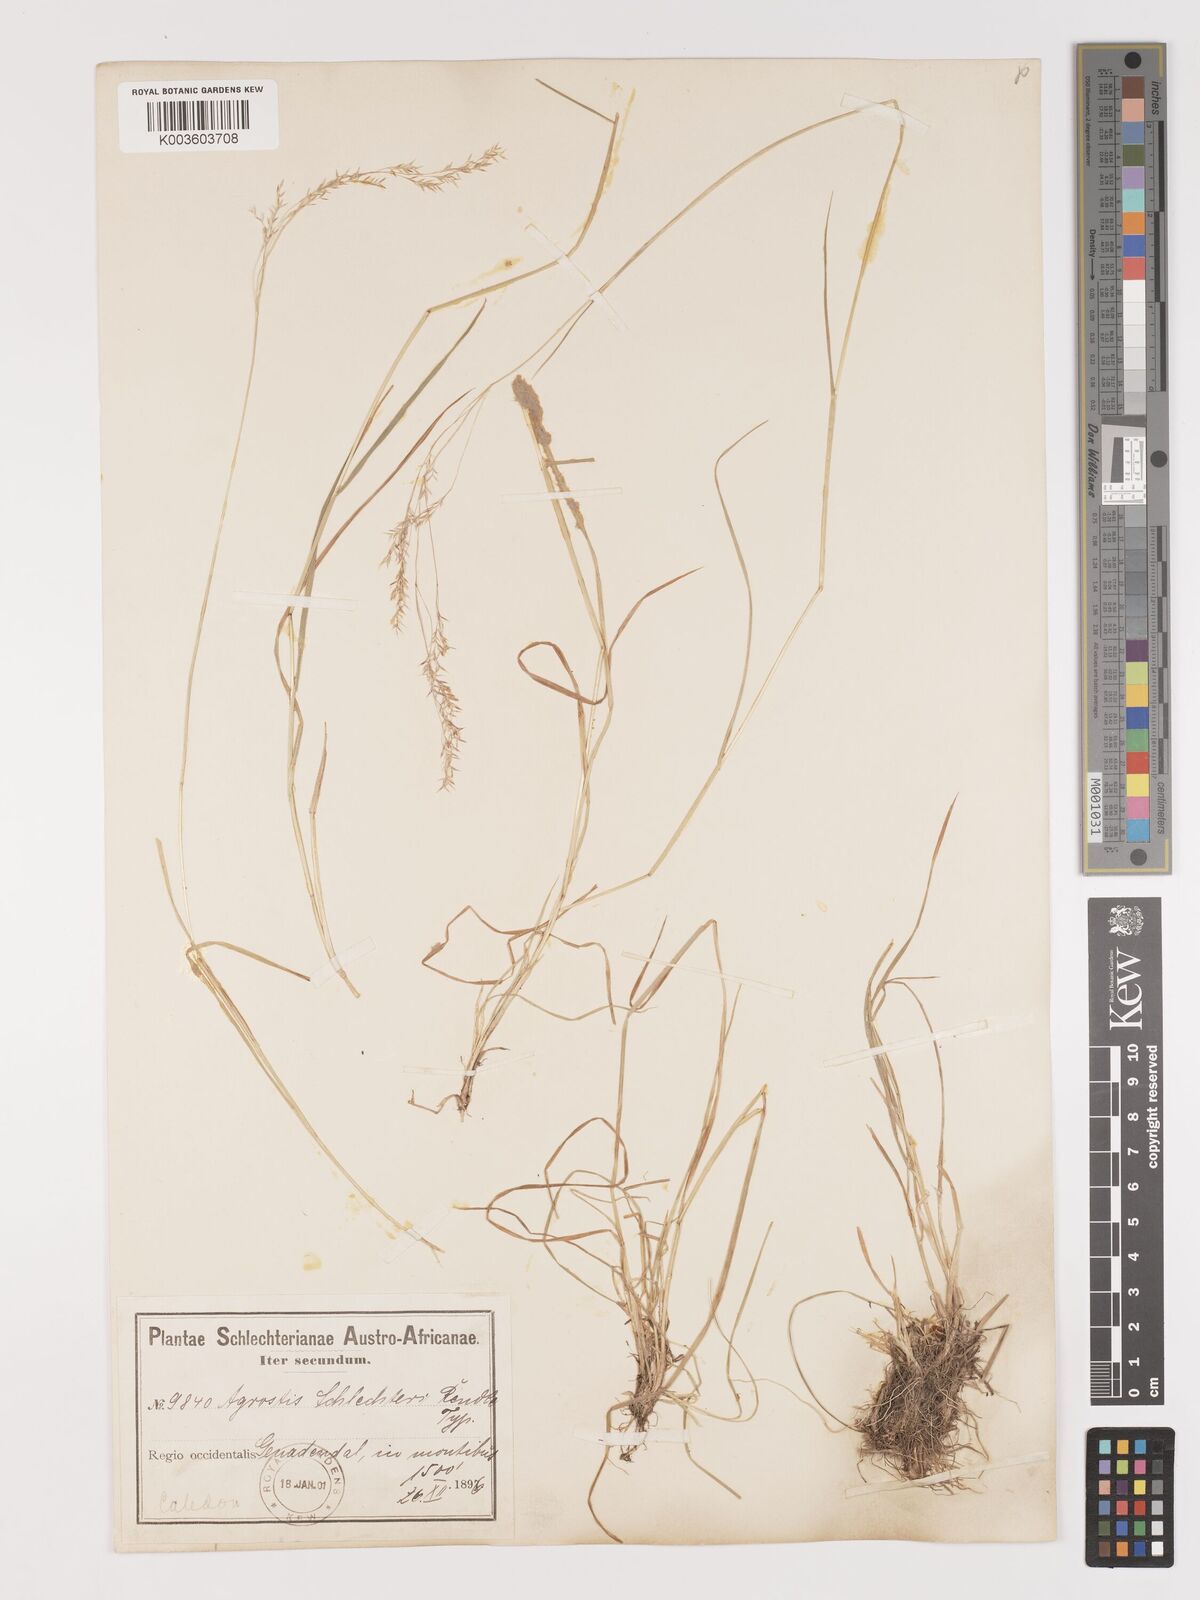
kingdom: Plantae
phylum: Tracheophyta
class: Liliopsida
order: Poales
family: Poaceae
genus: Lachnagrostis
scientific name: Lachnagrostis schlechteri
